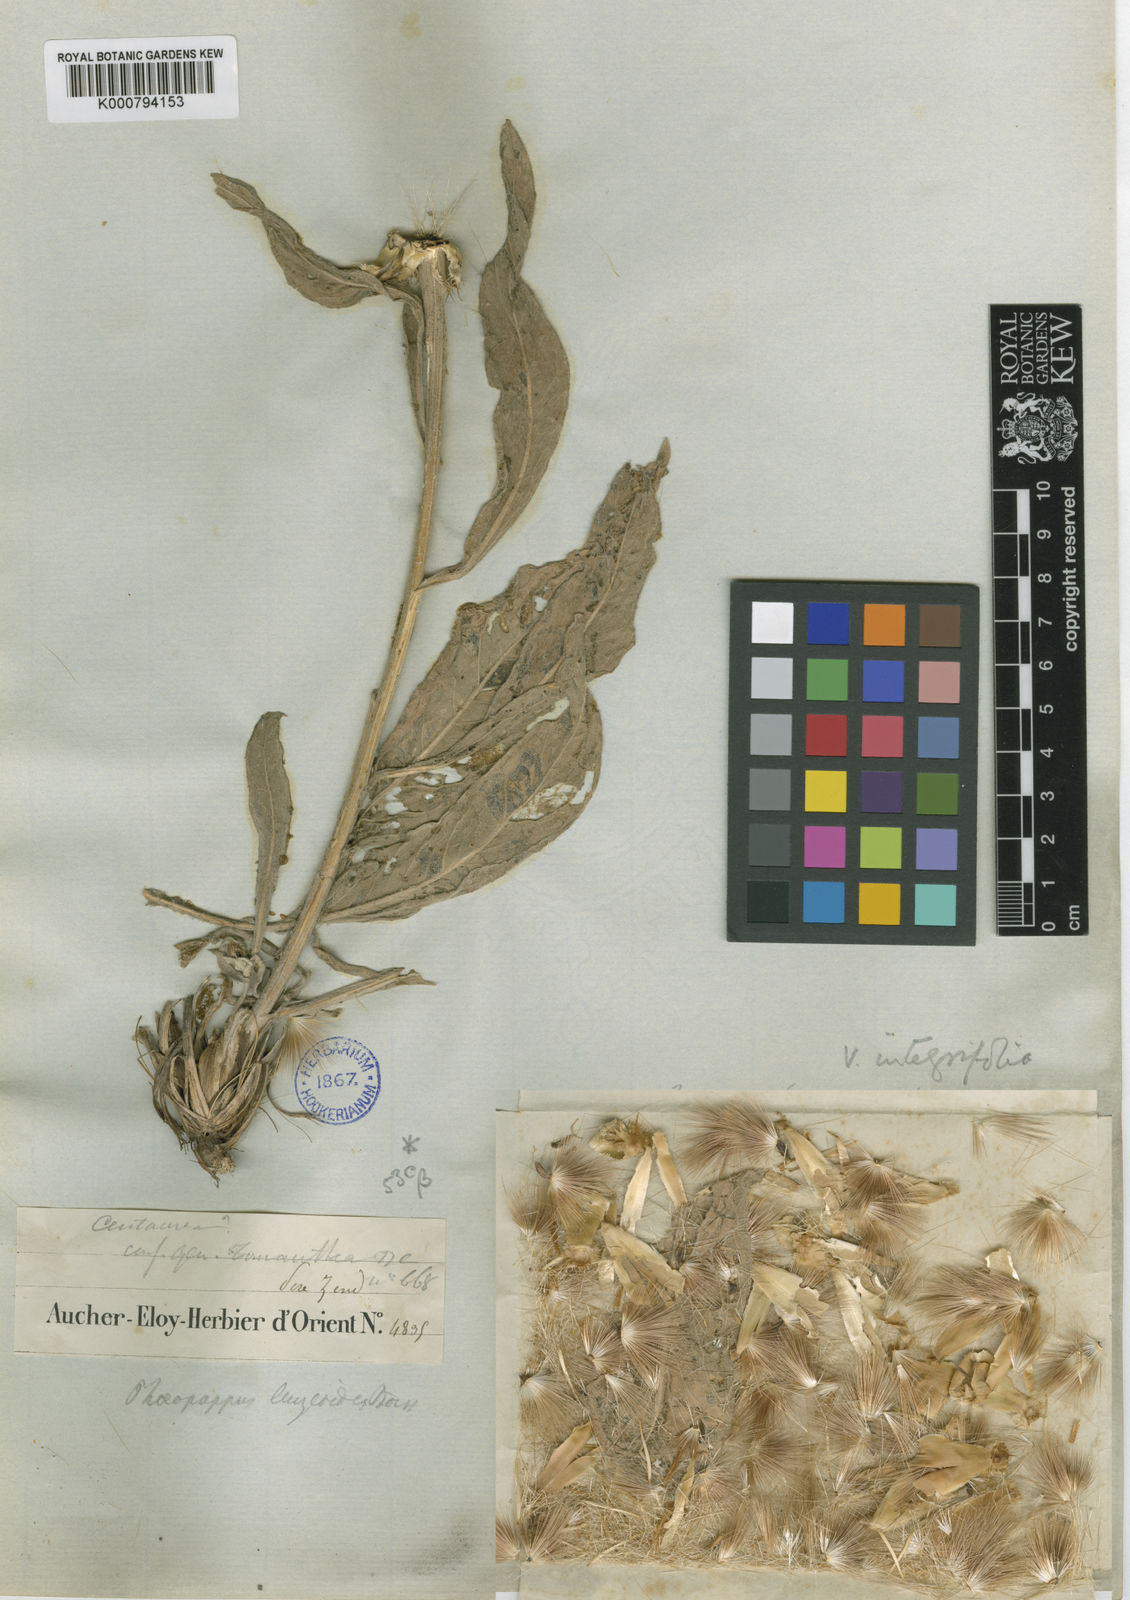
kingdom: Plantae
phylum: Tracheophyta
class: Magnoliopsida
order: Asterales
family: Asteraceae
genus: Centaurea
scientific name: Centaurea aucheri
